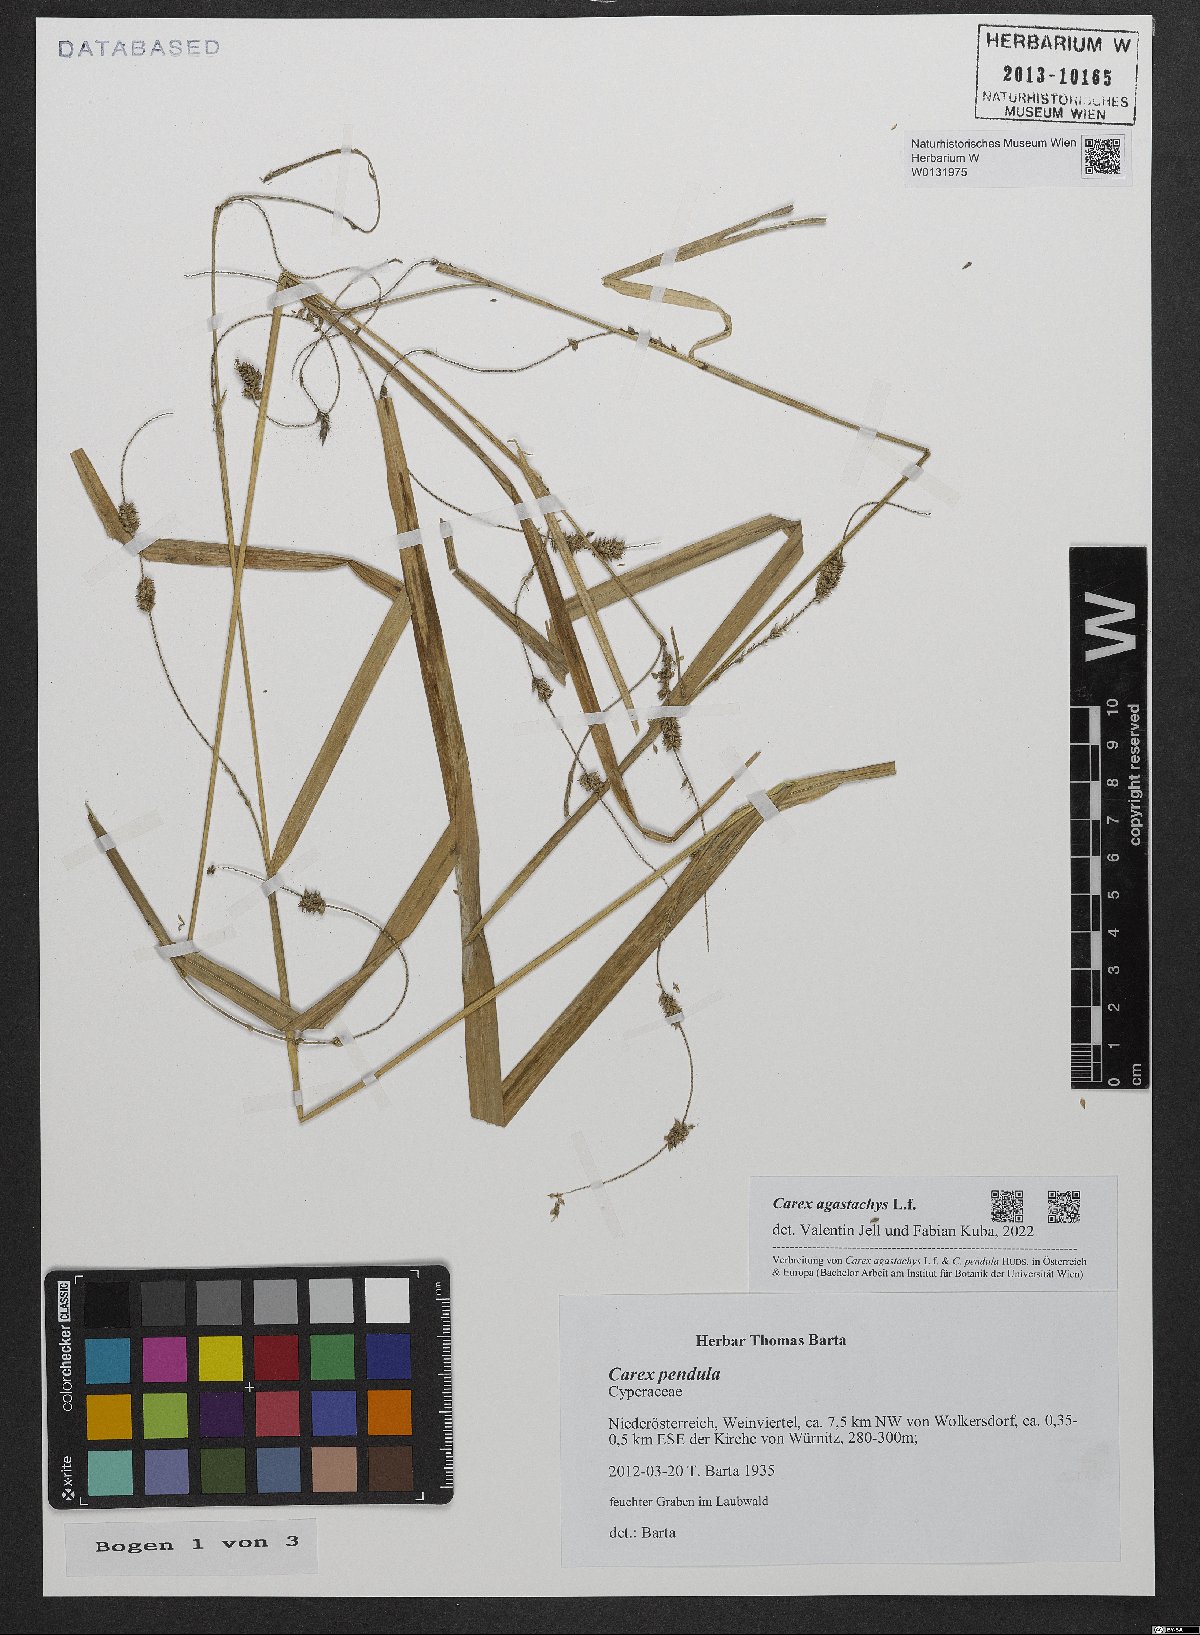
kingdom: Plantae
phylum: Tracheophyta
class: Liliopsida
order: Poales
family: Cyperaceae
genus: Carex
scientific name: Carex agastachys
